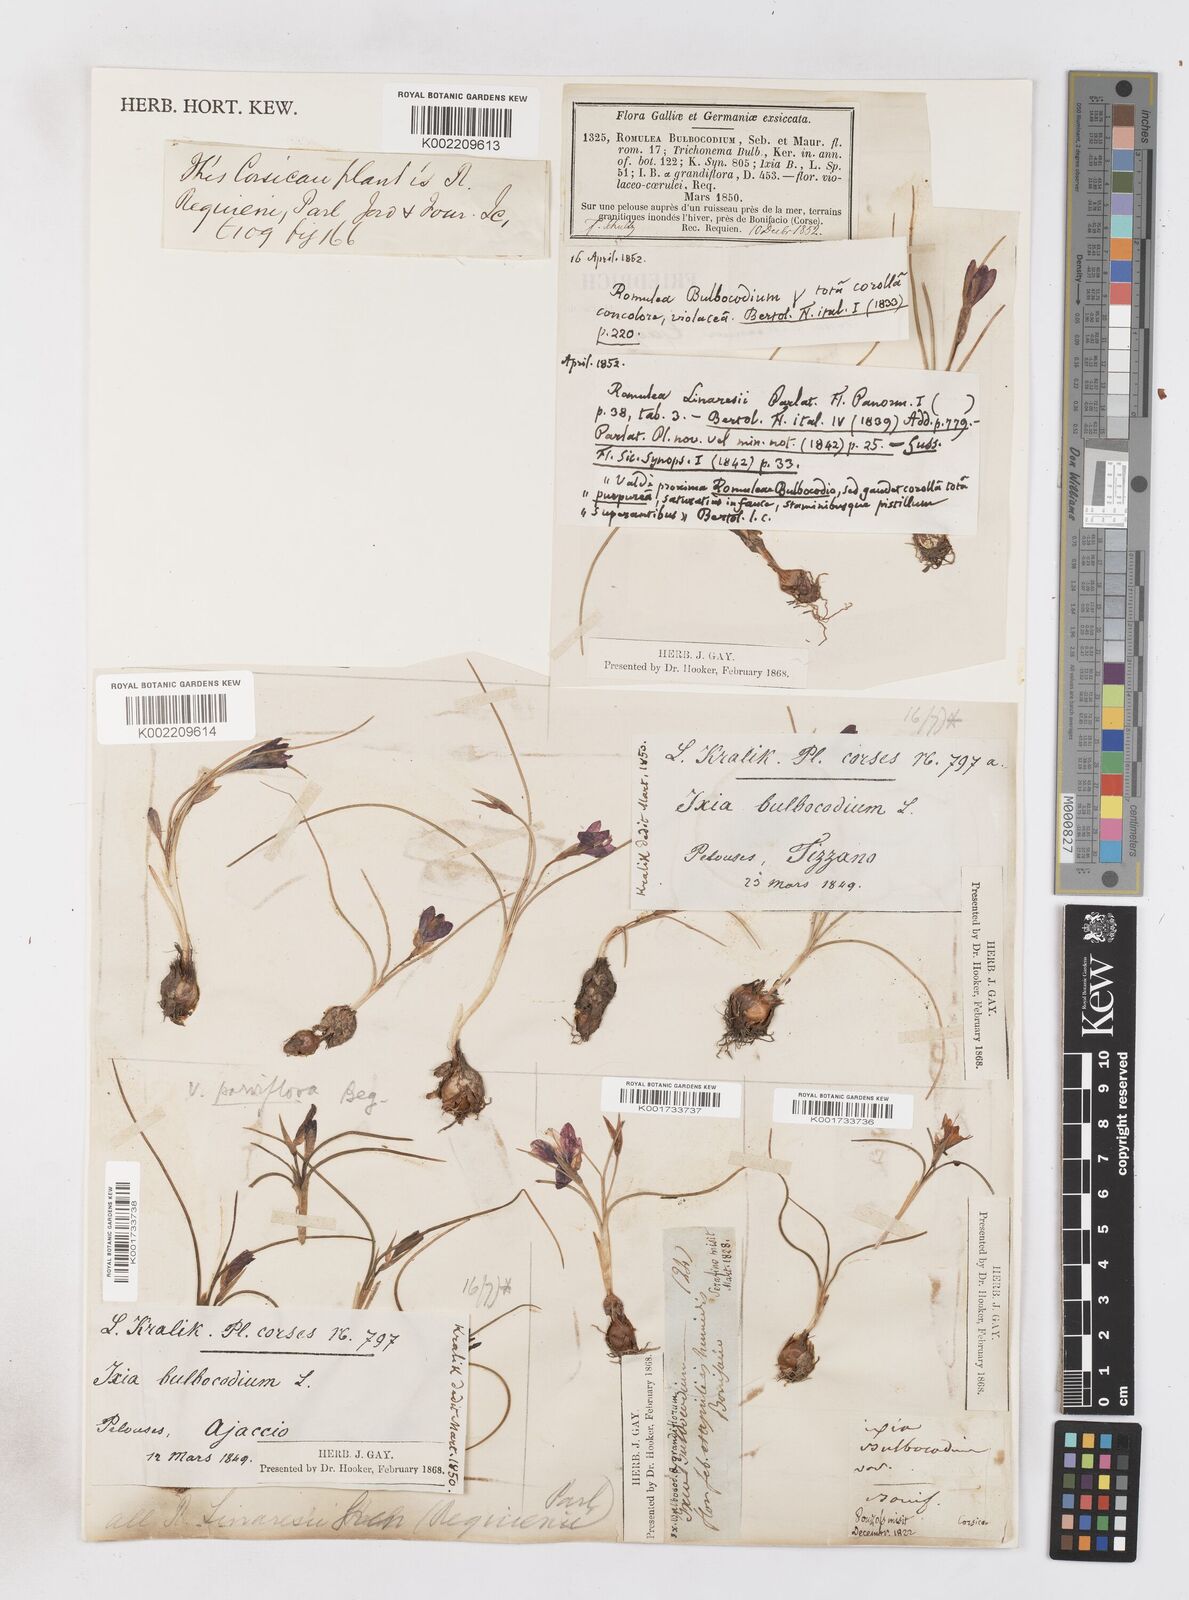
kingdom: Plantae
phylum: Tracheophyta
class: Liliopsida
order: Asparagales
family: Iridaceae
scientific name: Iridaceae
